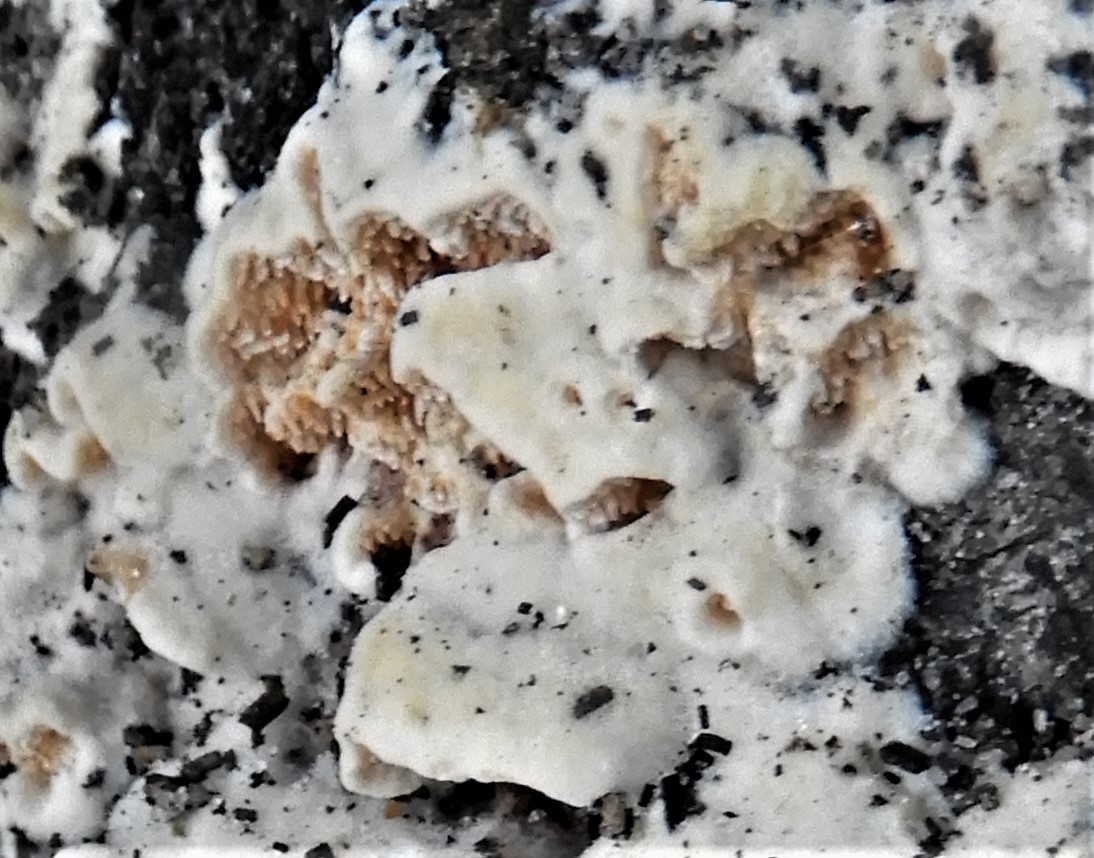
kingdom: Fungi
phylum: Basidiomycota
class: Agaricomycetes
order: Polyporales
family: Steccherinaceae
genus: Steccherinum
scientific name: Steccherinum
